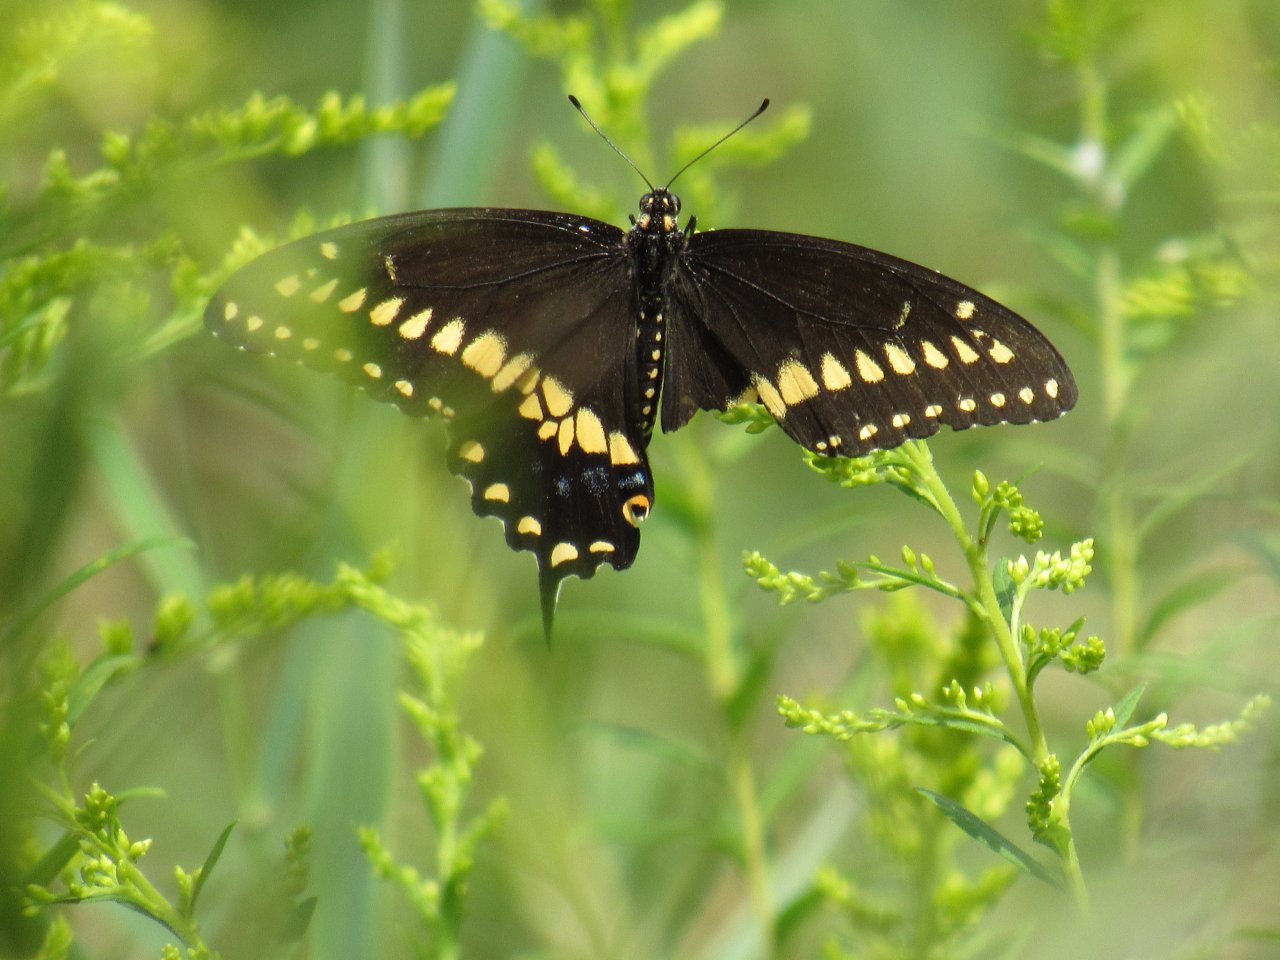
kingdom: Animalia
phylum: Arthropoda
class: Insecta
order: Lepidoptera
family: Papilionidae
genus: Papilio
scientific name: Papilio polyxenes
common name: Black Swallowtail
